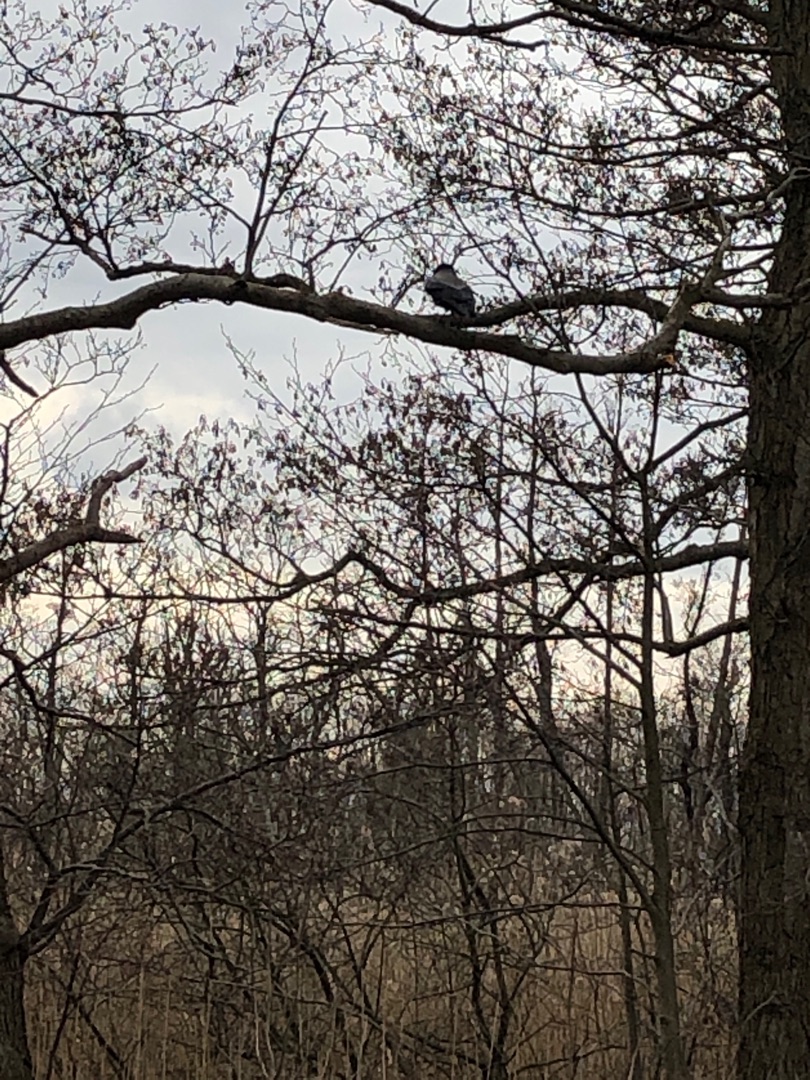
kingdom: Animalia
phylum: Chordata
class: Aves
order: Passeriformes
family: Corvidae
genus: Corvus
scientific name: Corvus cornix
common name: Gråkrage
